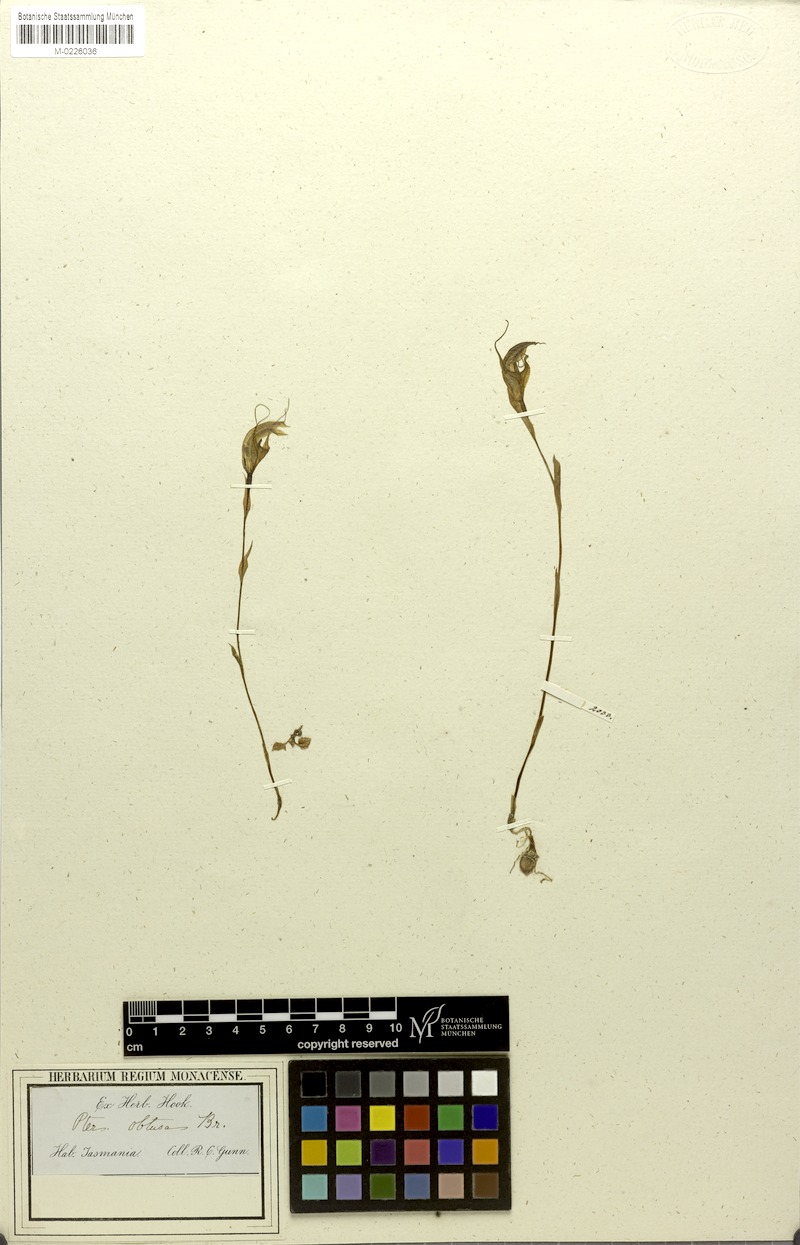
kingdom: Plantae
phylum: Tracheophyta
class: Liliopsida
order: Asparagales
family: Orchidaceae
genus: Pterostylis
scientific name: Pterostylis obtusa
